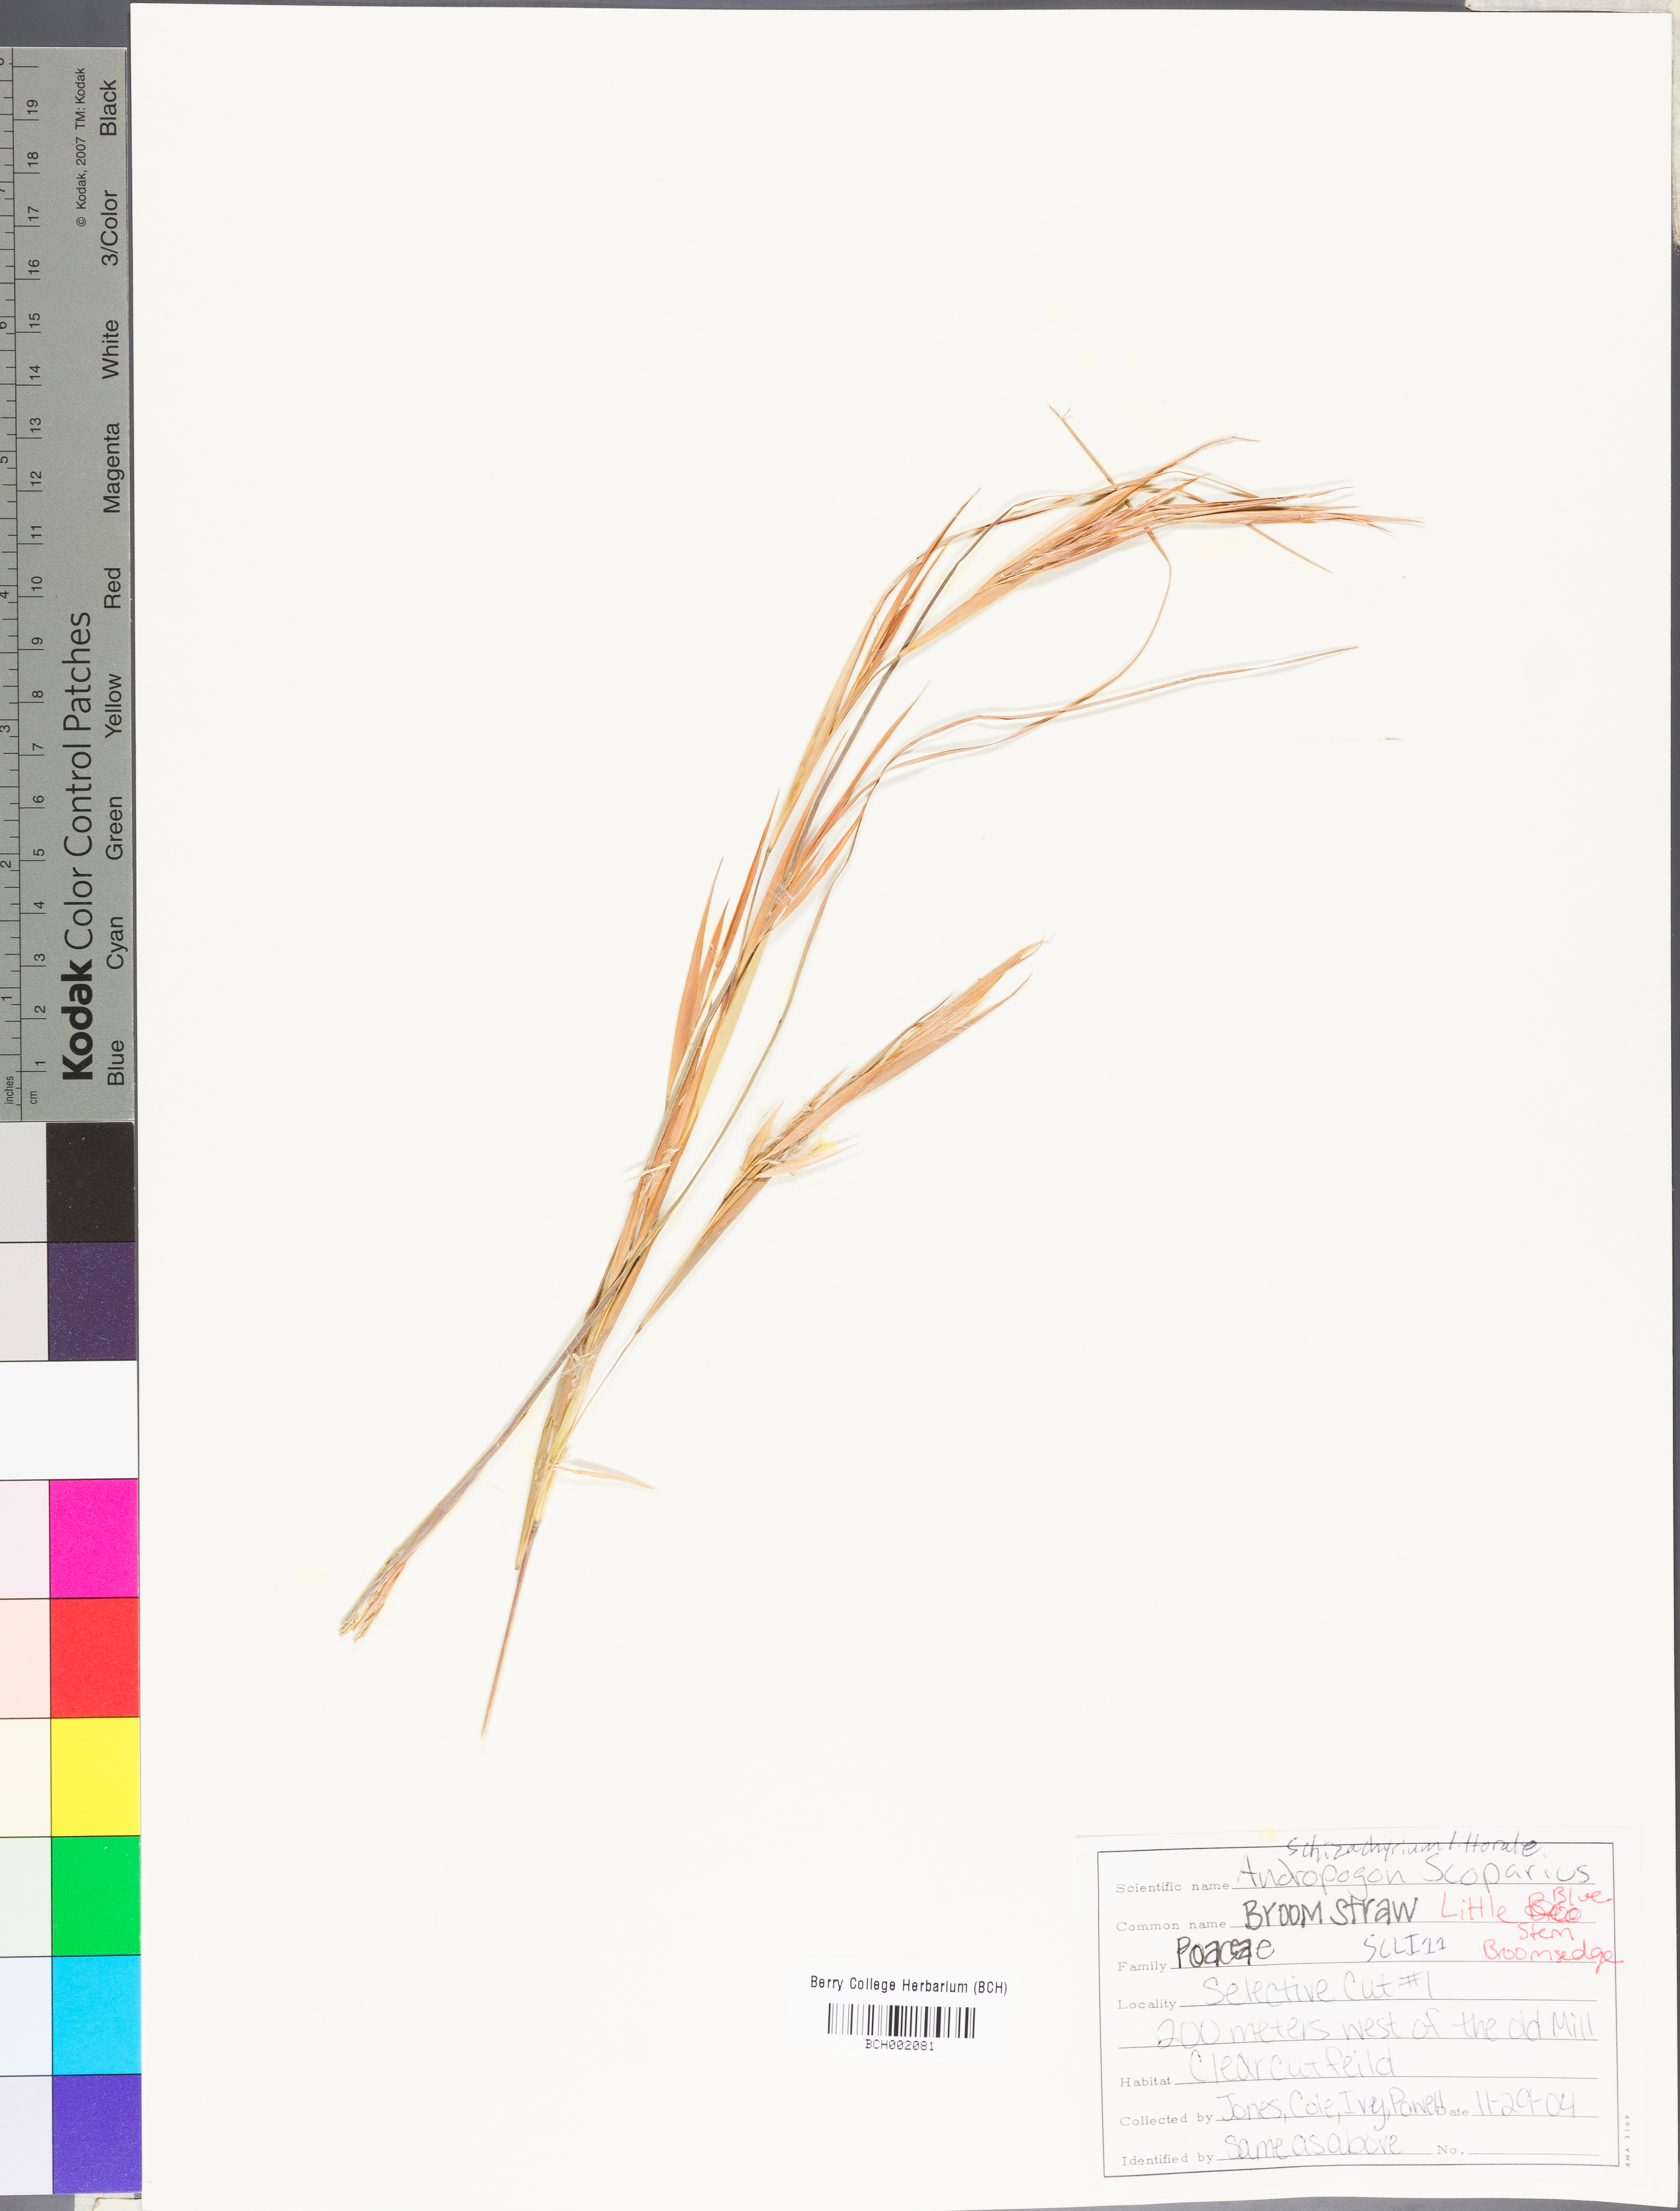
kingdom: Plantae
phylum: Tracheophyta
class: Liliopsida
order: Poales
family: Poaceae
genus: Schizachyrium
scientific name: Schizachyrium scoparium
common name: Little bluestem
